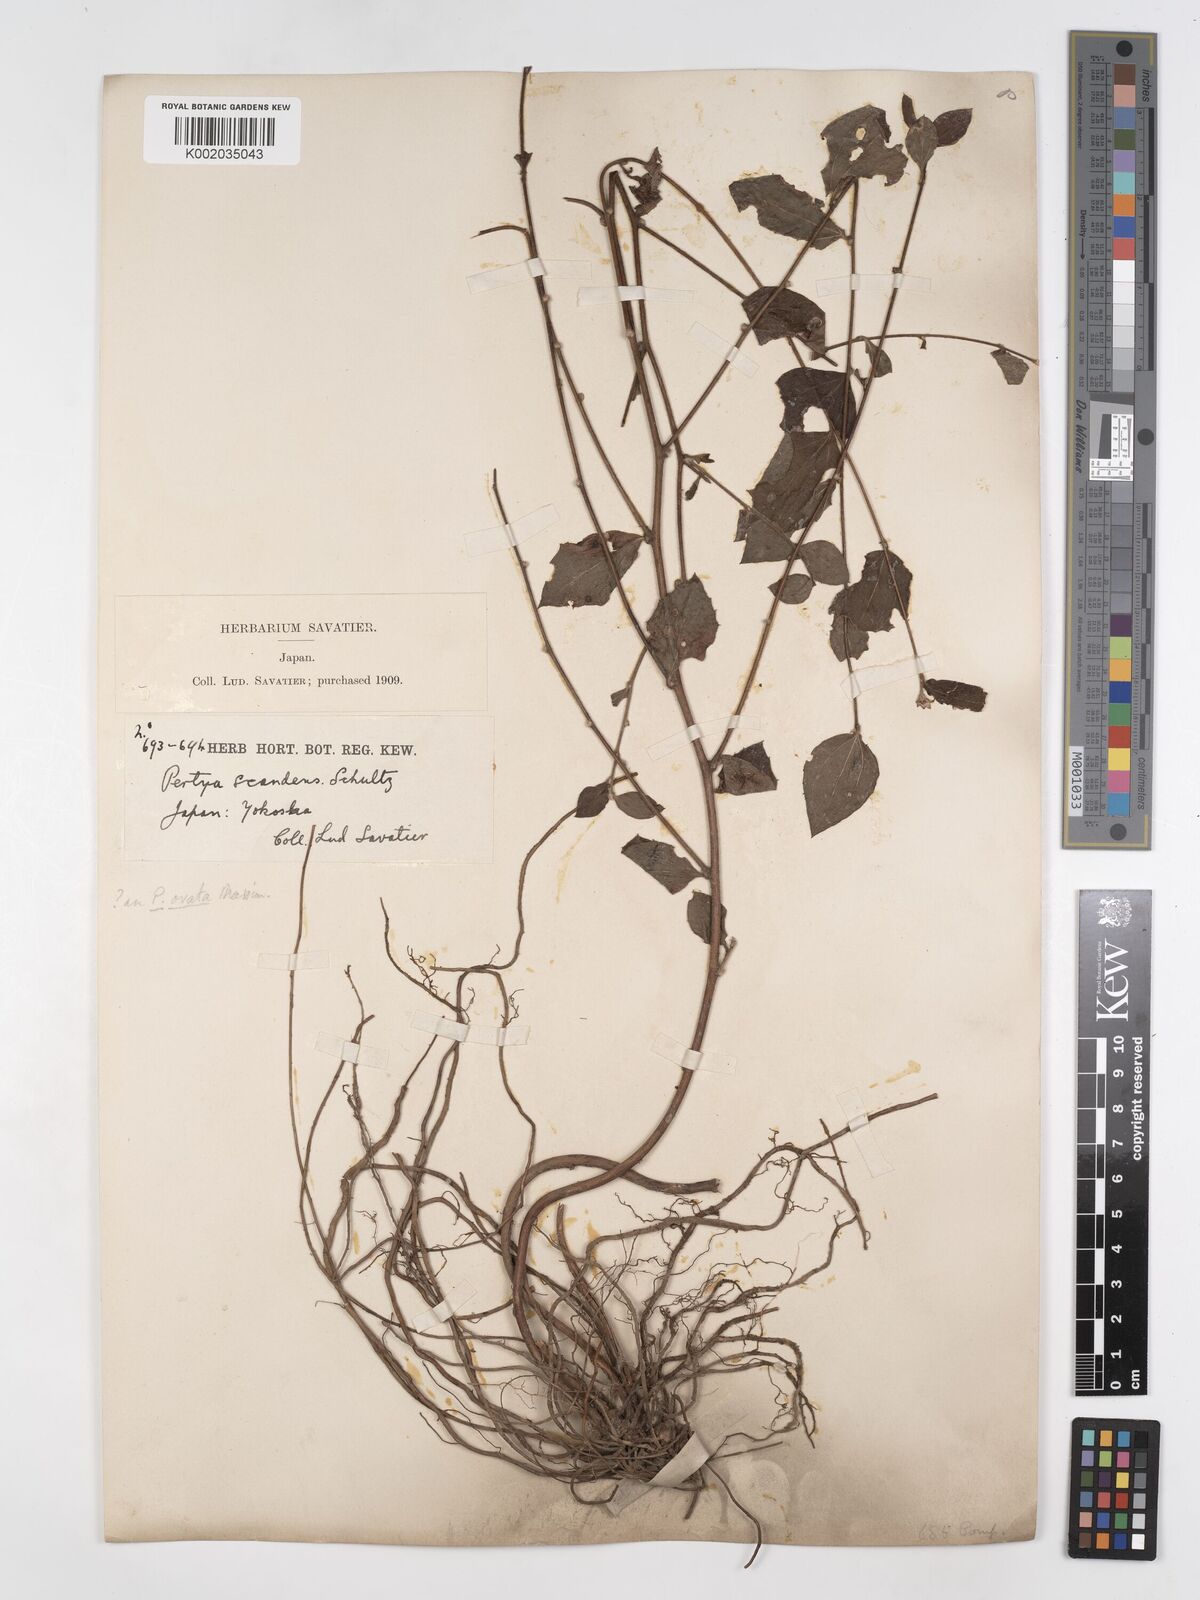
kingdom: Plantae
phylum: Tracheophyta
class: Magnoliopsida
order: Asterales
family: Asteraceae
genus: Pertya
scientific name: Pertya scandens
